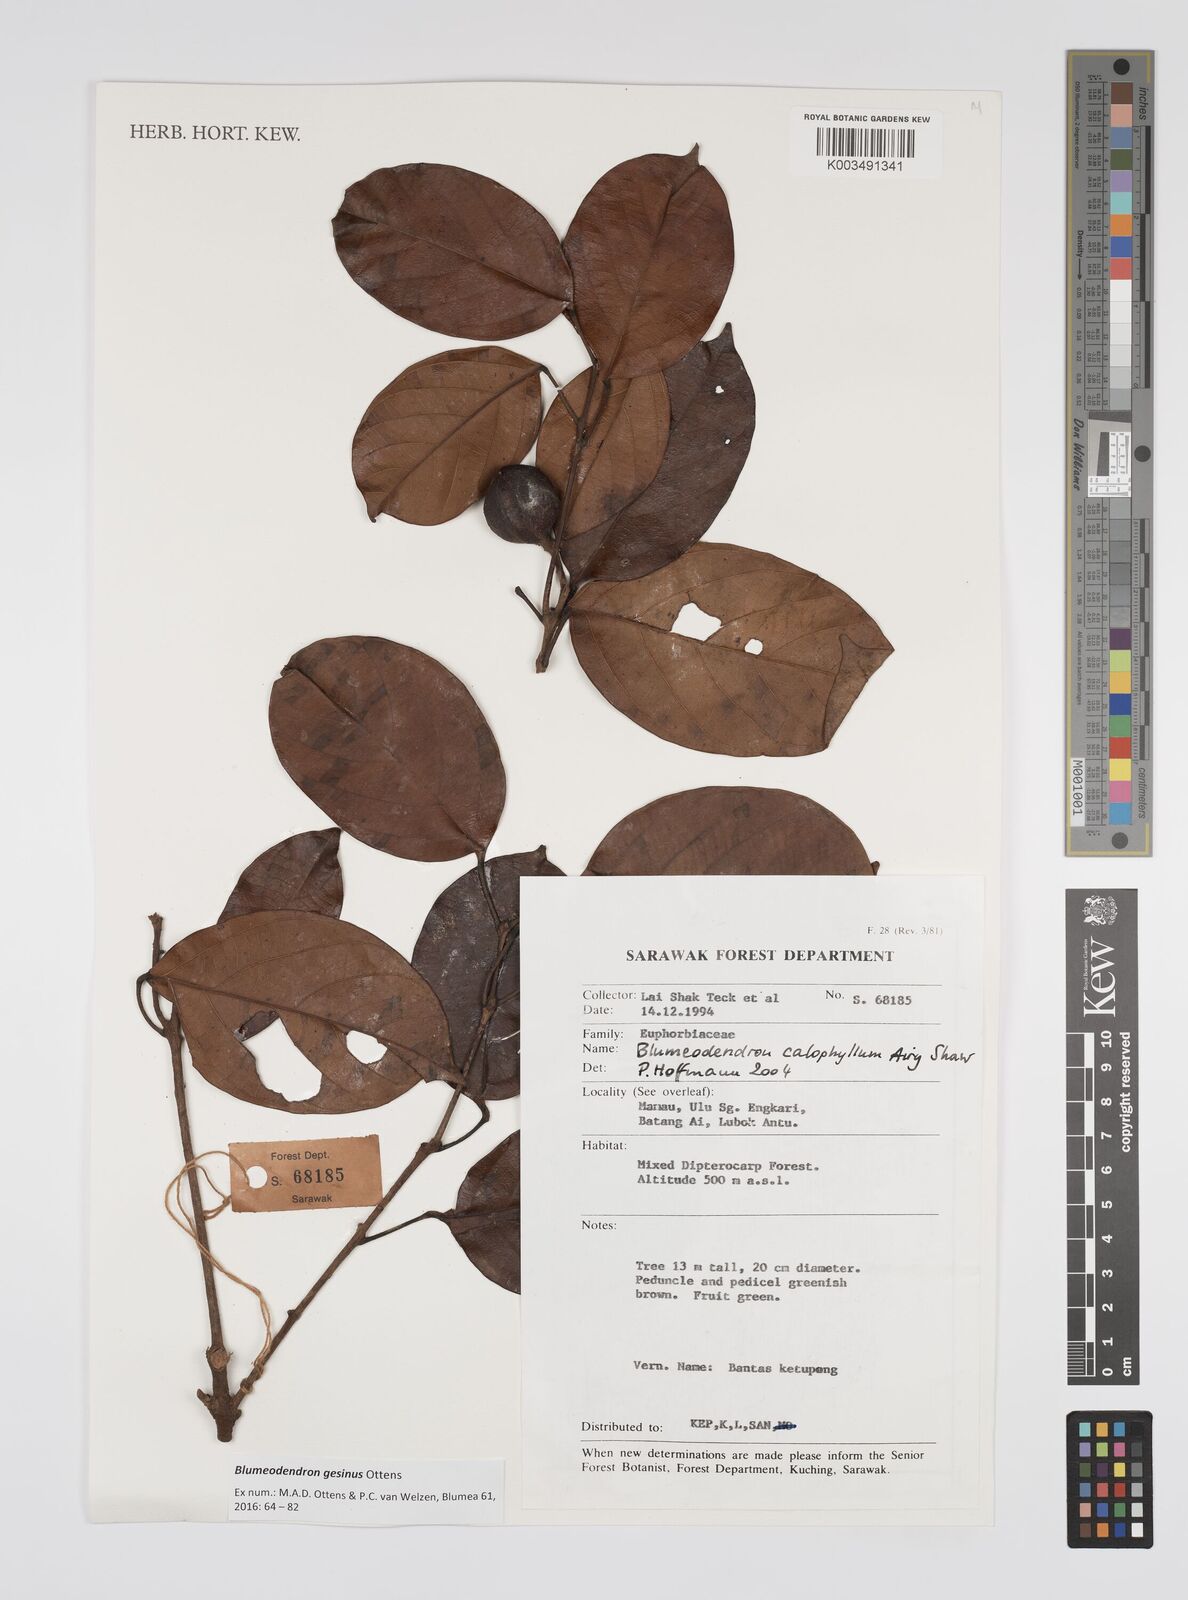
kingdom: Plantae
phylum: Tracheophyta
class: Magnoliopsida
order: Malpighiales
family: Euphorbiaceae
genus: Blumeodendron
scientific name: Blumeodendron gesinus
